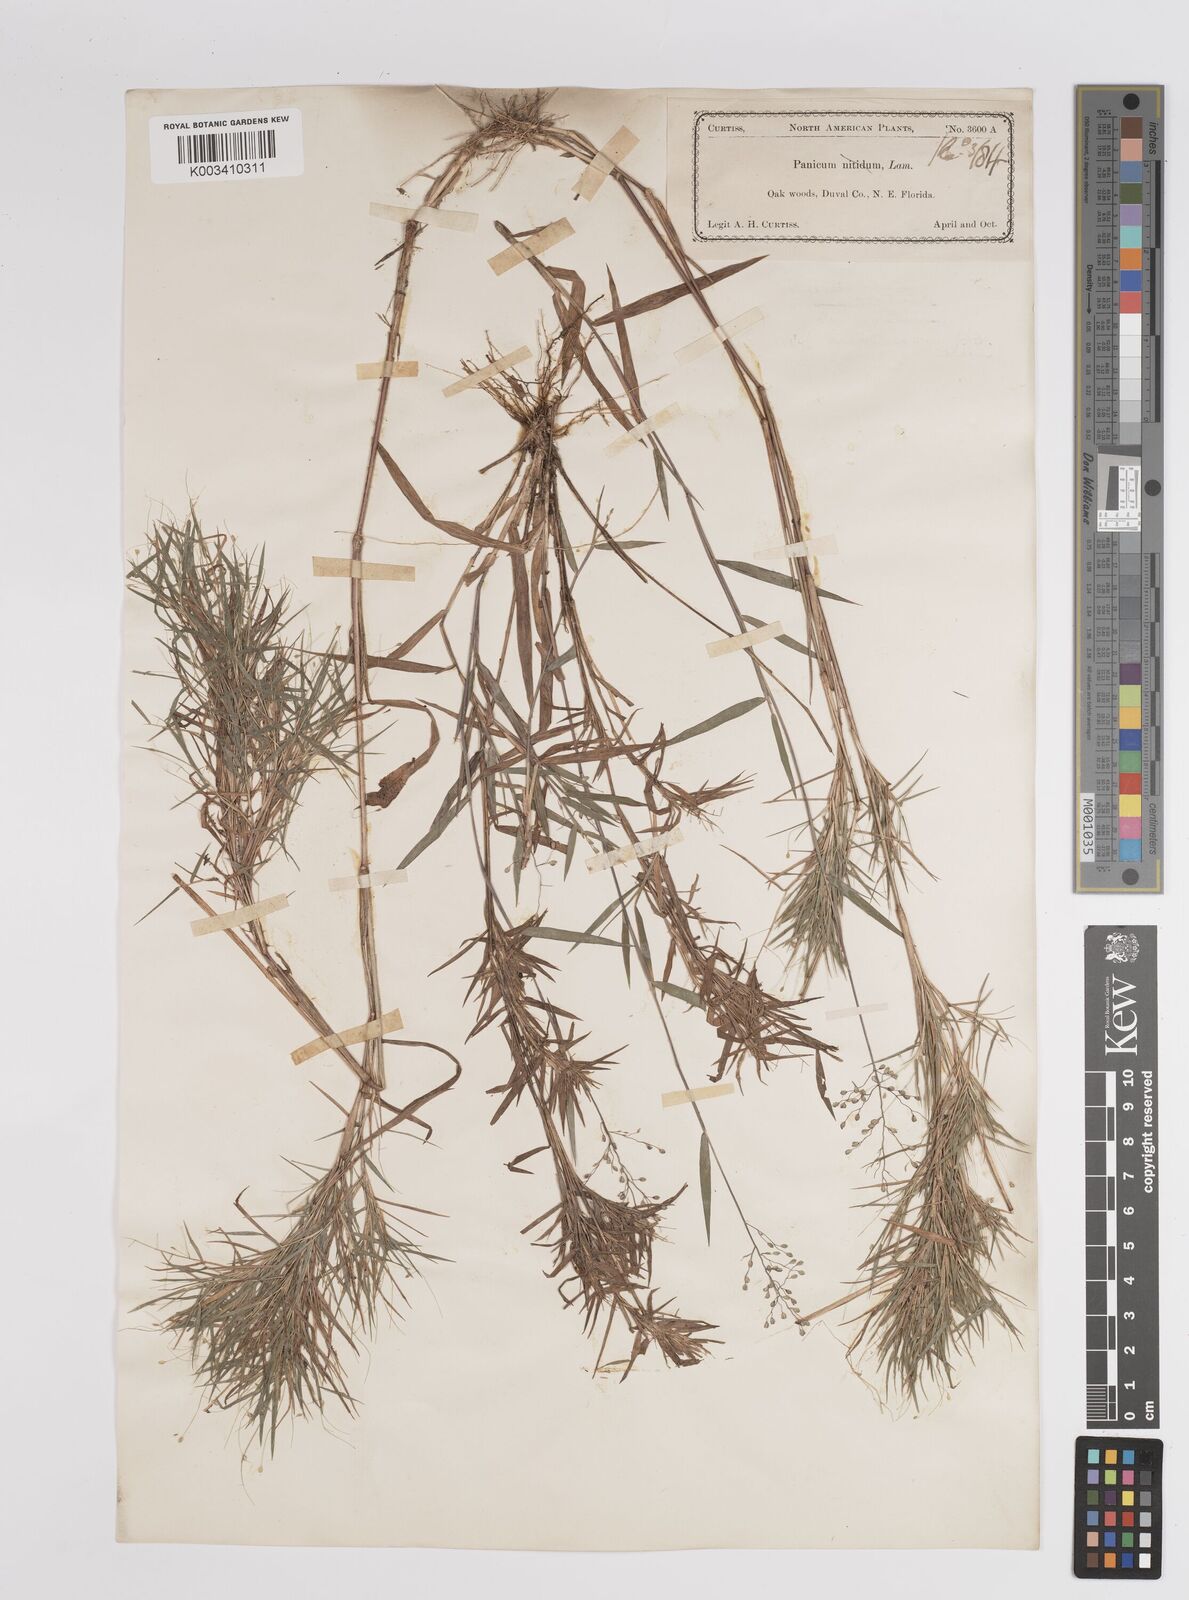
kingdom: Plantae
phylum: Tracheophyta
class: Liliopsida
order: Poales
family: Poaceae
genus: Dichanthelium
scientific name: Dichanthelium aciculare
